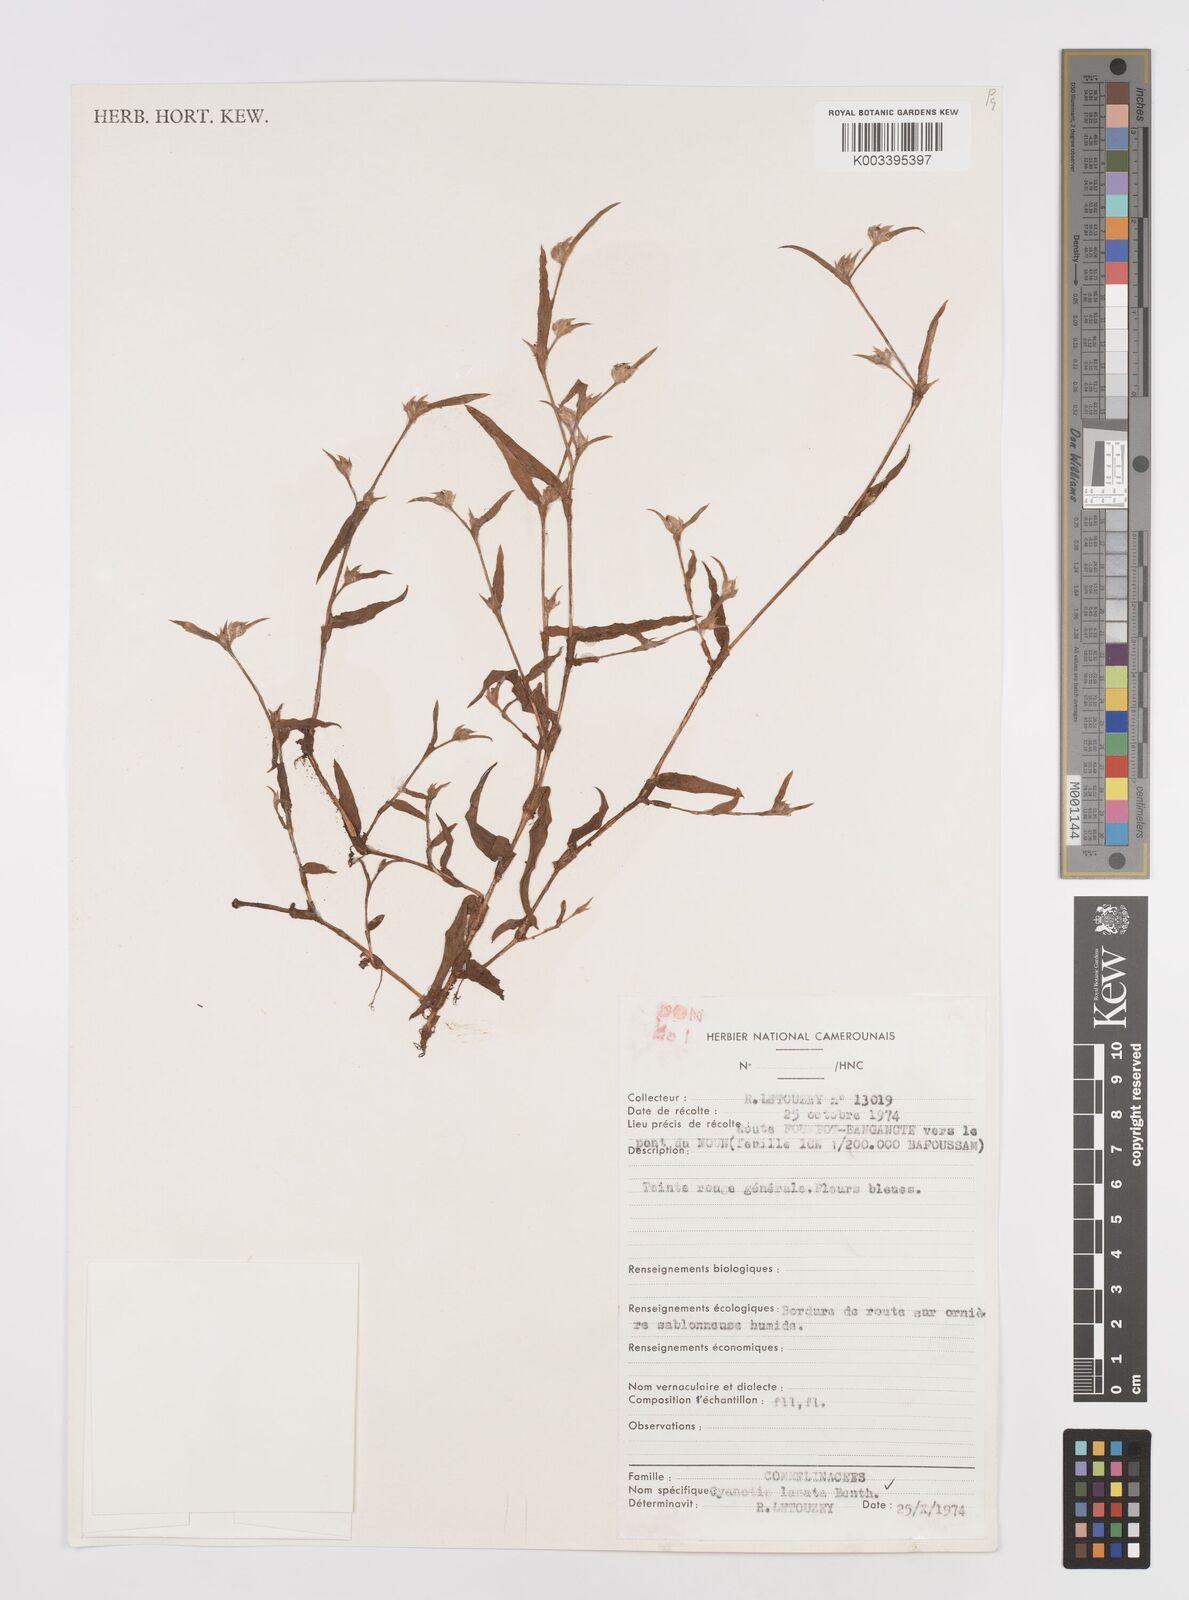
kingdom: Plantae
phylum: Tracheophyta
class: Liliopsida
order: Commelinales
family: Commelinaceae
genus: Cyanotis
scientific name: Cyanotis lanata
